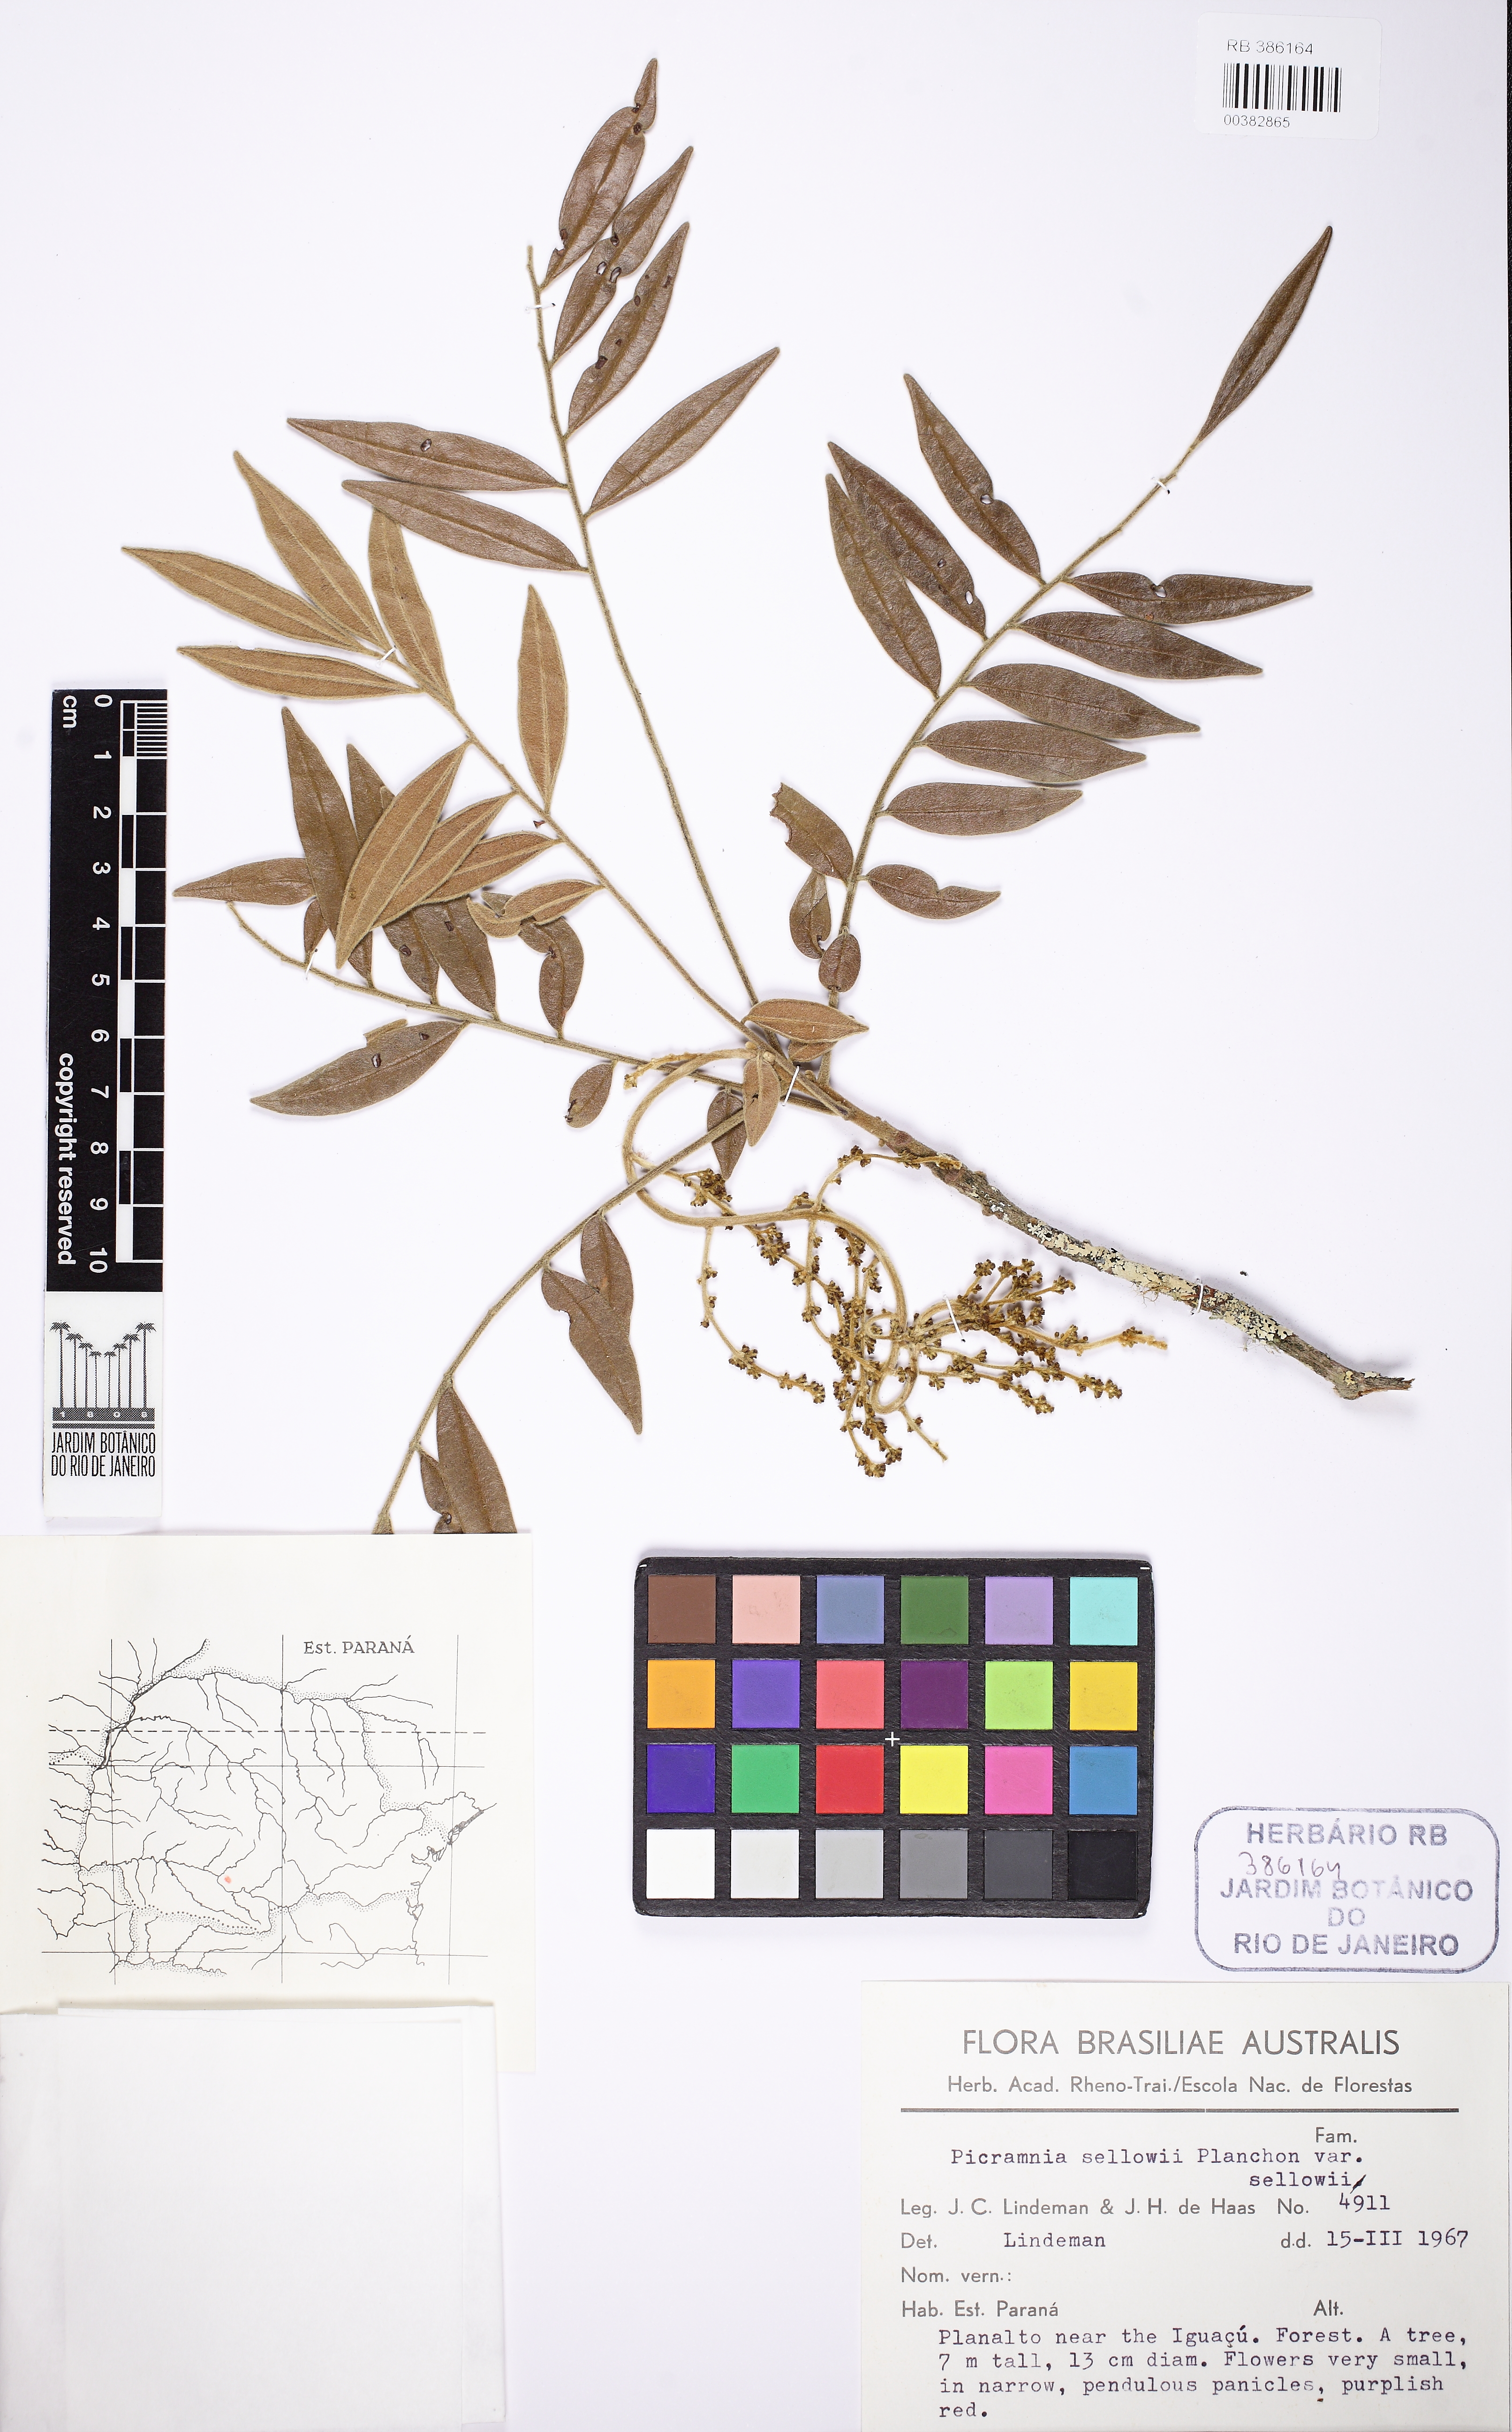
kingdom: Plantae
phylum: Tracheophyta
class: Magnoliopsida
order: Picramniales
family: Picramniaceae
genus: Picramnia
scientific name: Picramnia sellowii
